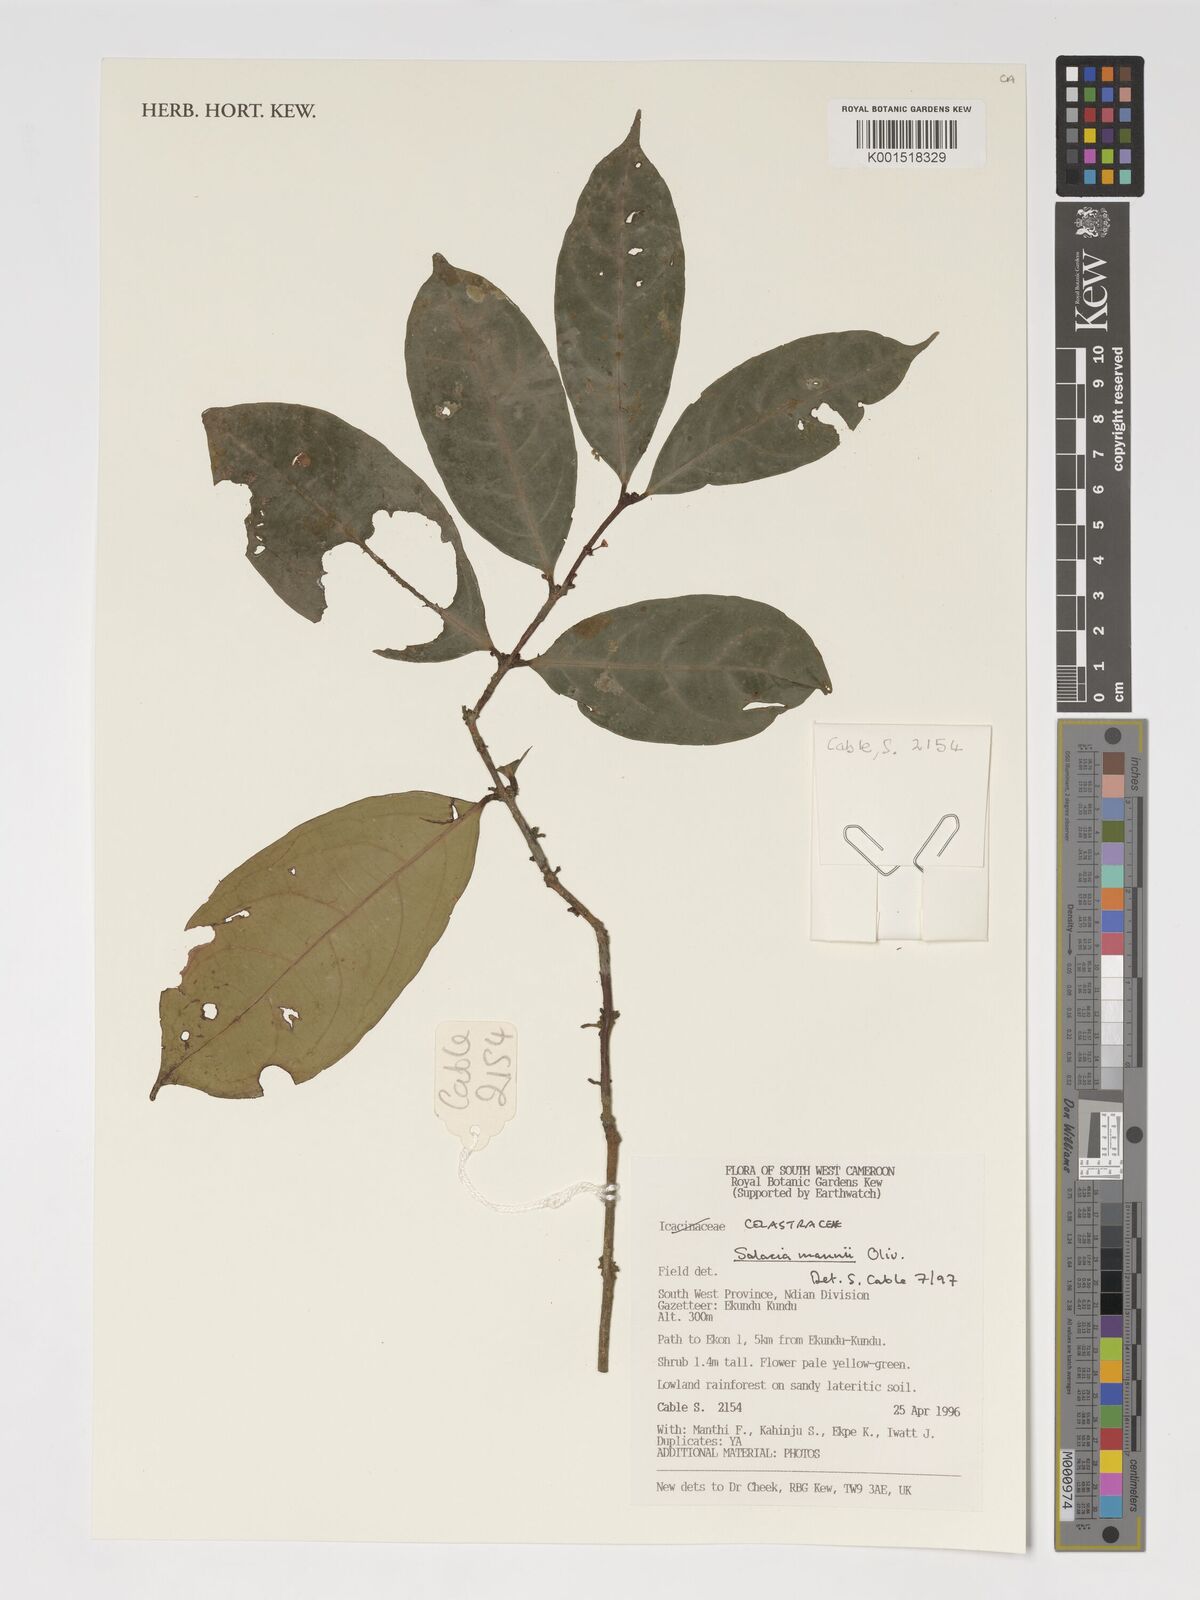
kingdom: Plantae
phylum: Tracheophyta
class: Magnoliopsida
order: Celastrales
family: Celastraceae
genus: Salacia
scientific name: Salacia mannii
